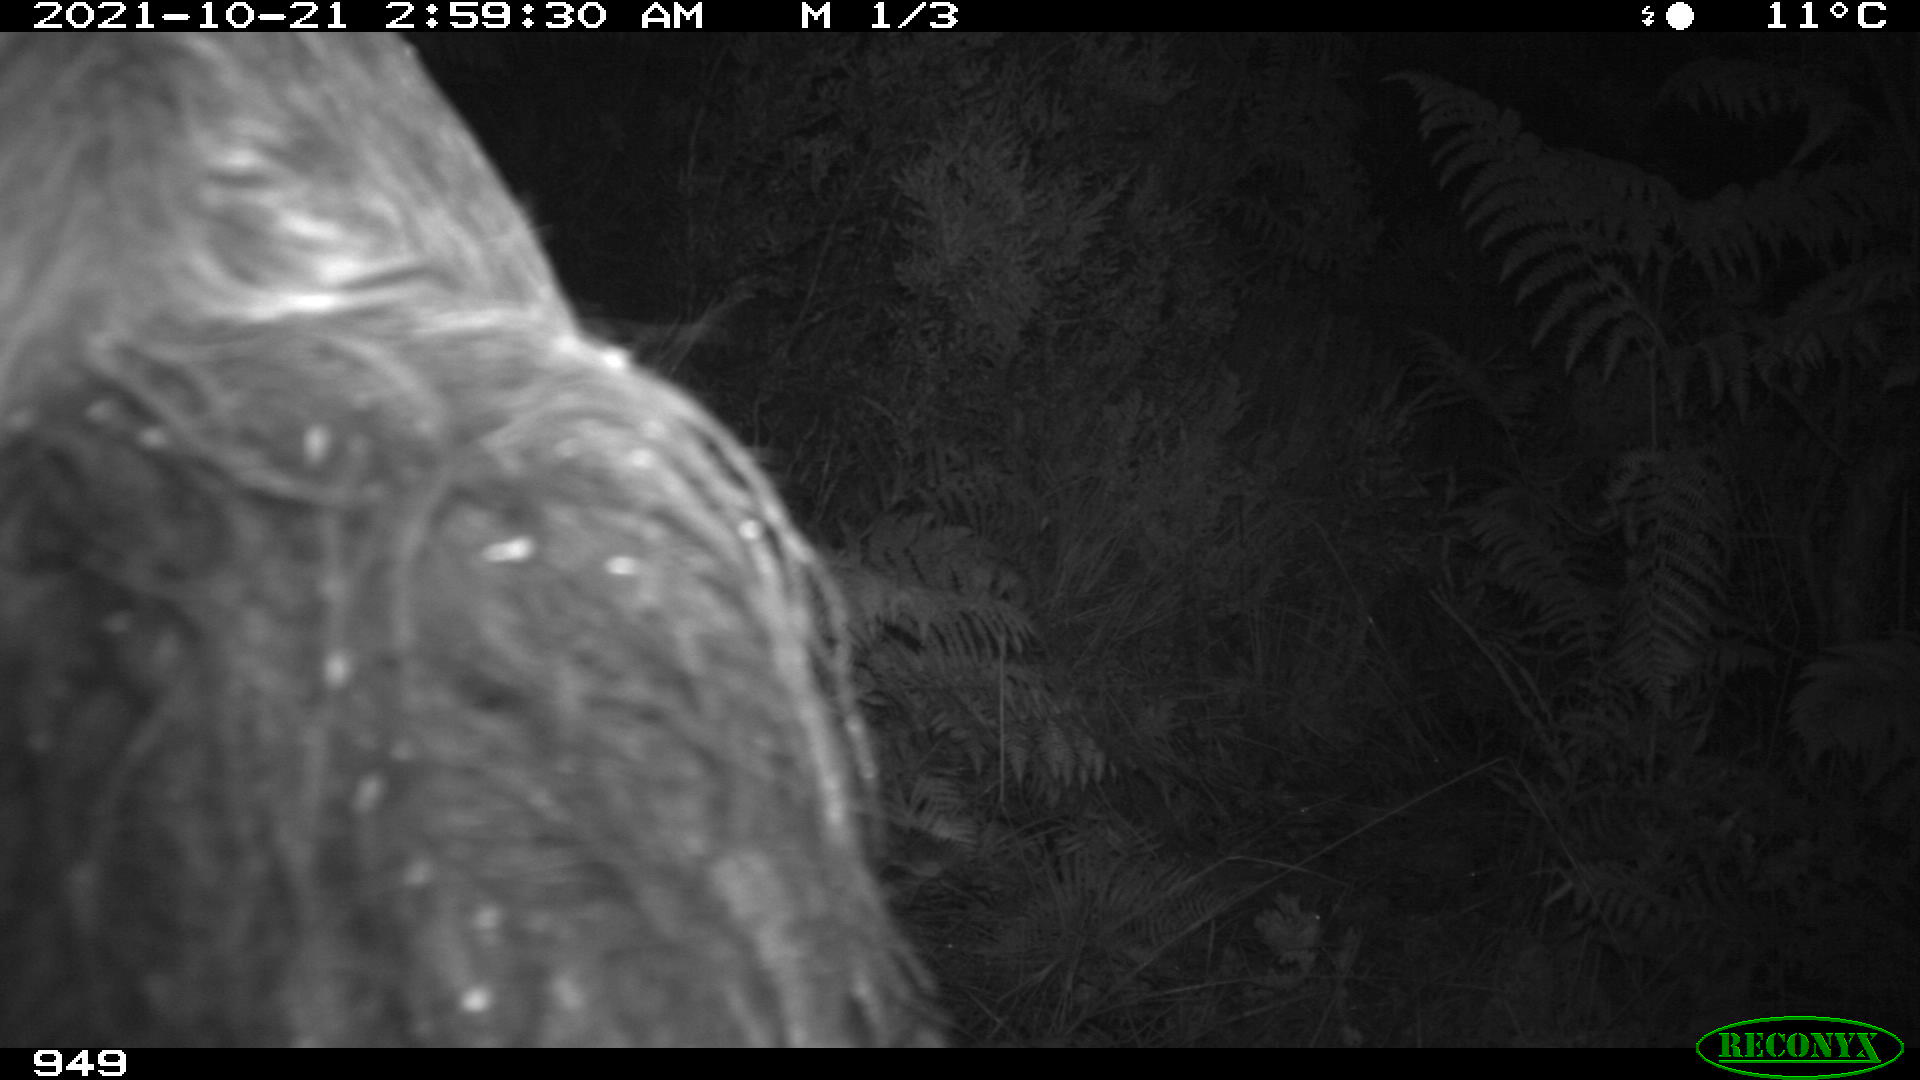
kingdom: Animalia
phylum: Chordata
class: Mammalia
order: Perissodactyla
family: Equidae
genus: Equus
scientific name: Equus caballus
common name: Horse
